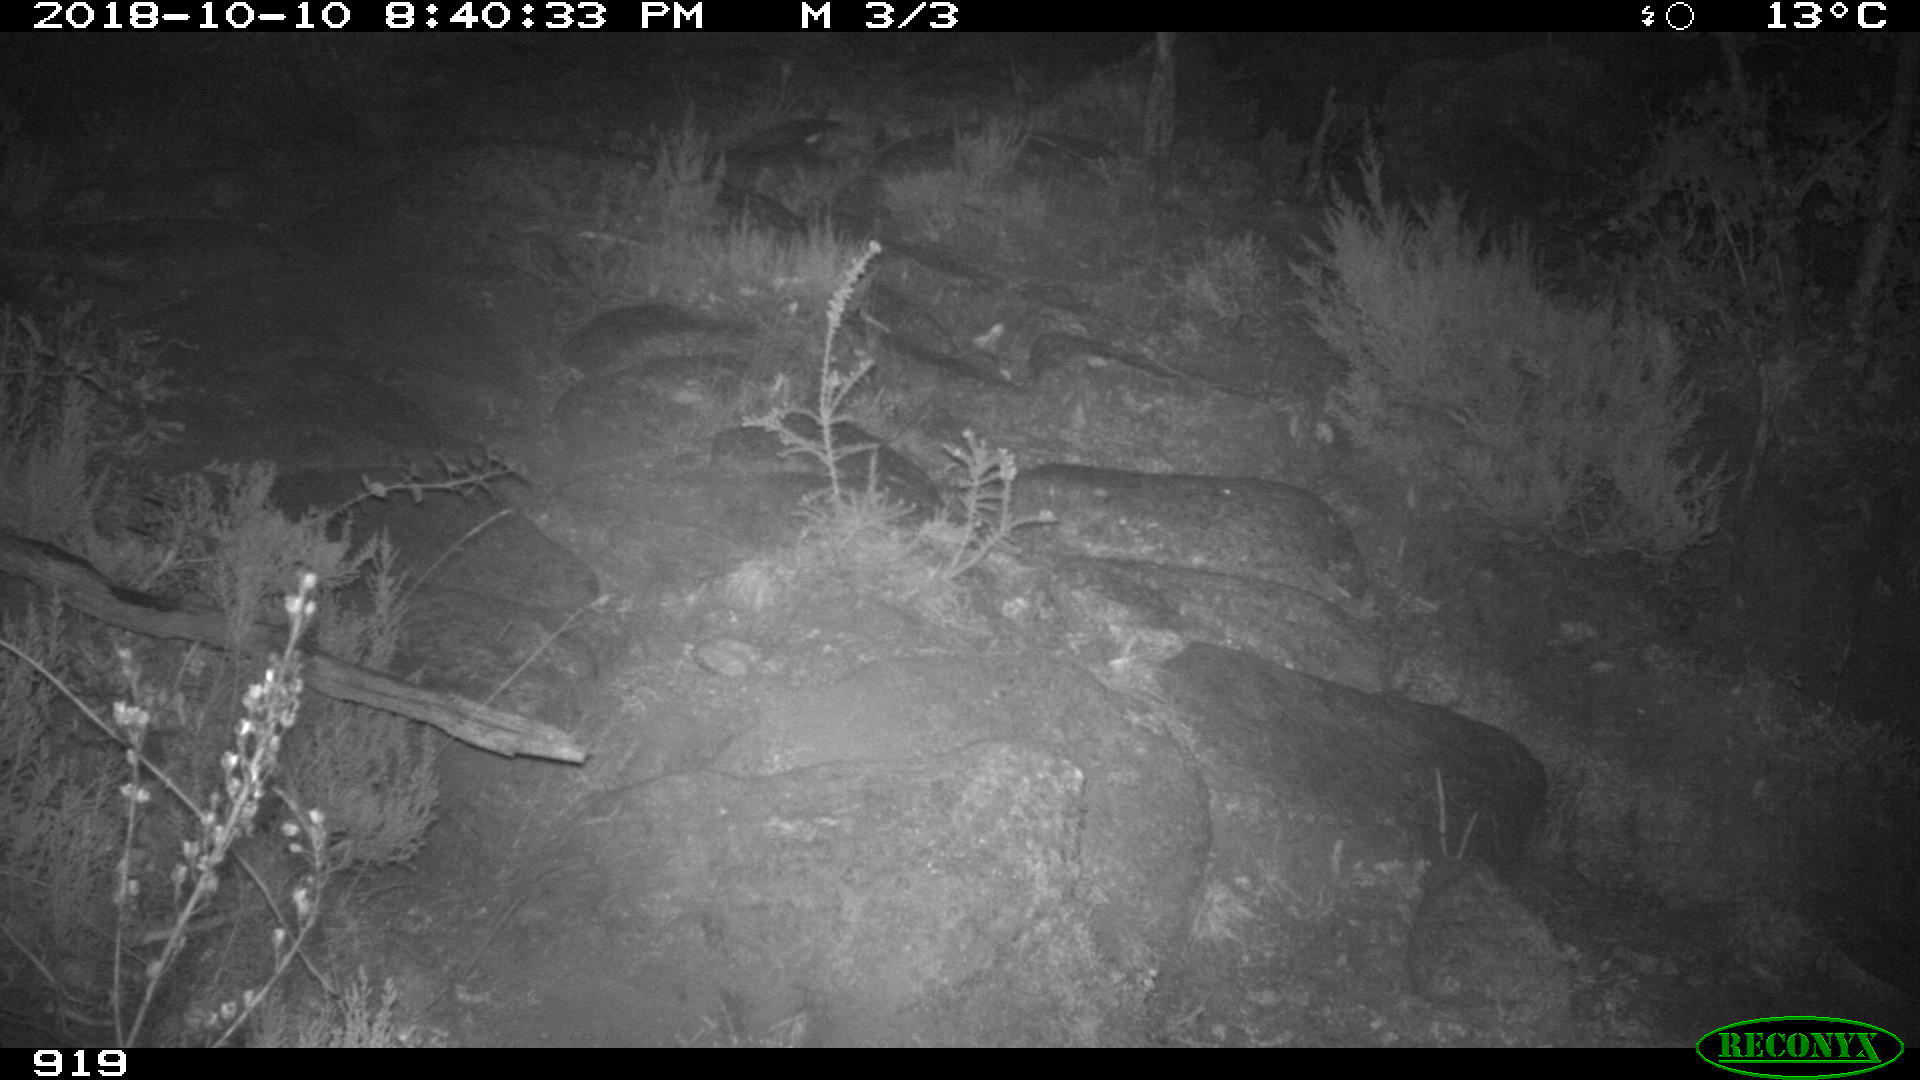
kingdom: Animalia
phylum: Chordata
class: Mammalia
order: Artiodactyla
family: Bovidae
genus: Bos
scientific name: Bos taurus
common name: Domesticated cattle
